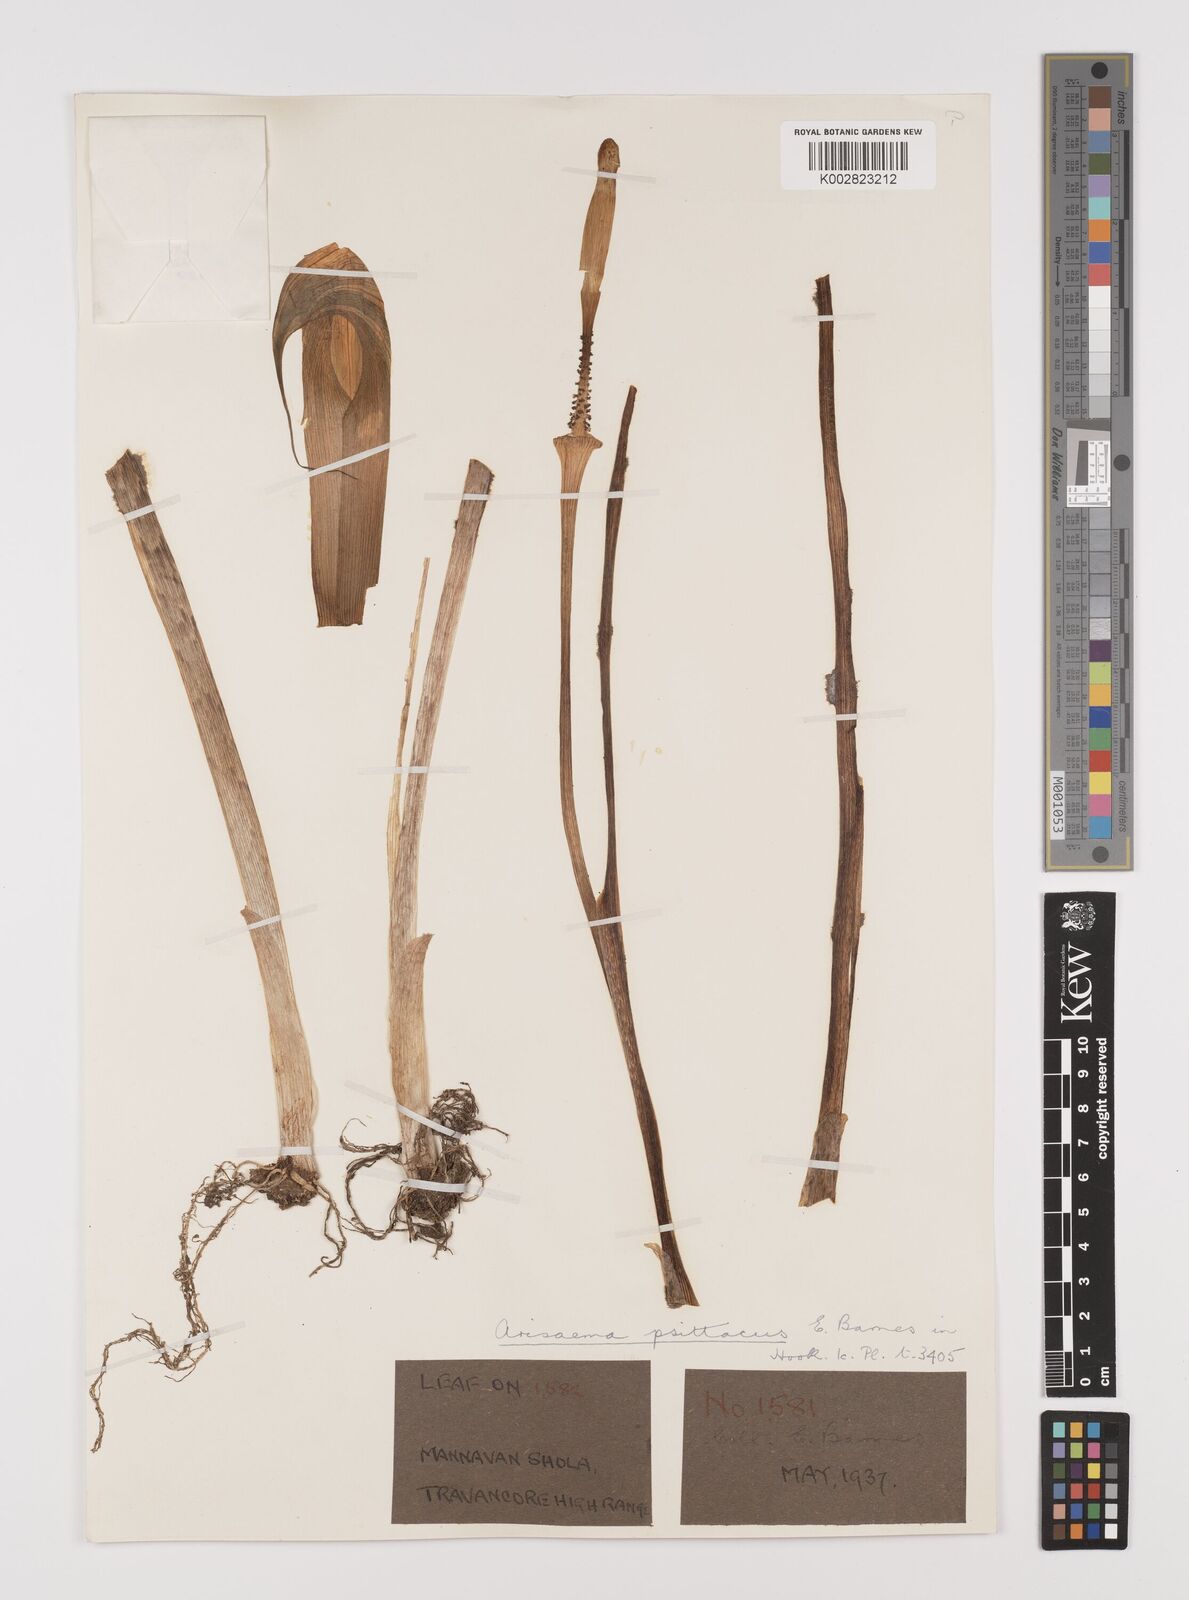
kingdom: Plantae
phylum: Tracheophyta
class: Liliopsida
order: Alismatales
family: Araceae
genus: Arisaema
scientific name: Arisaema psittacus
